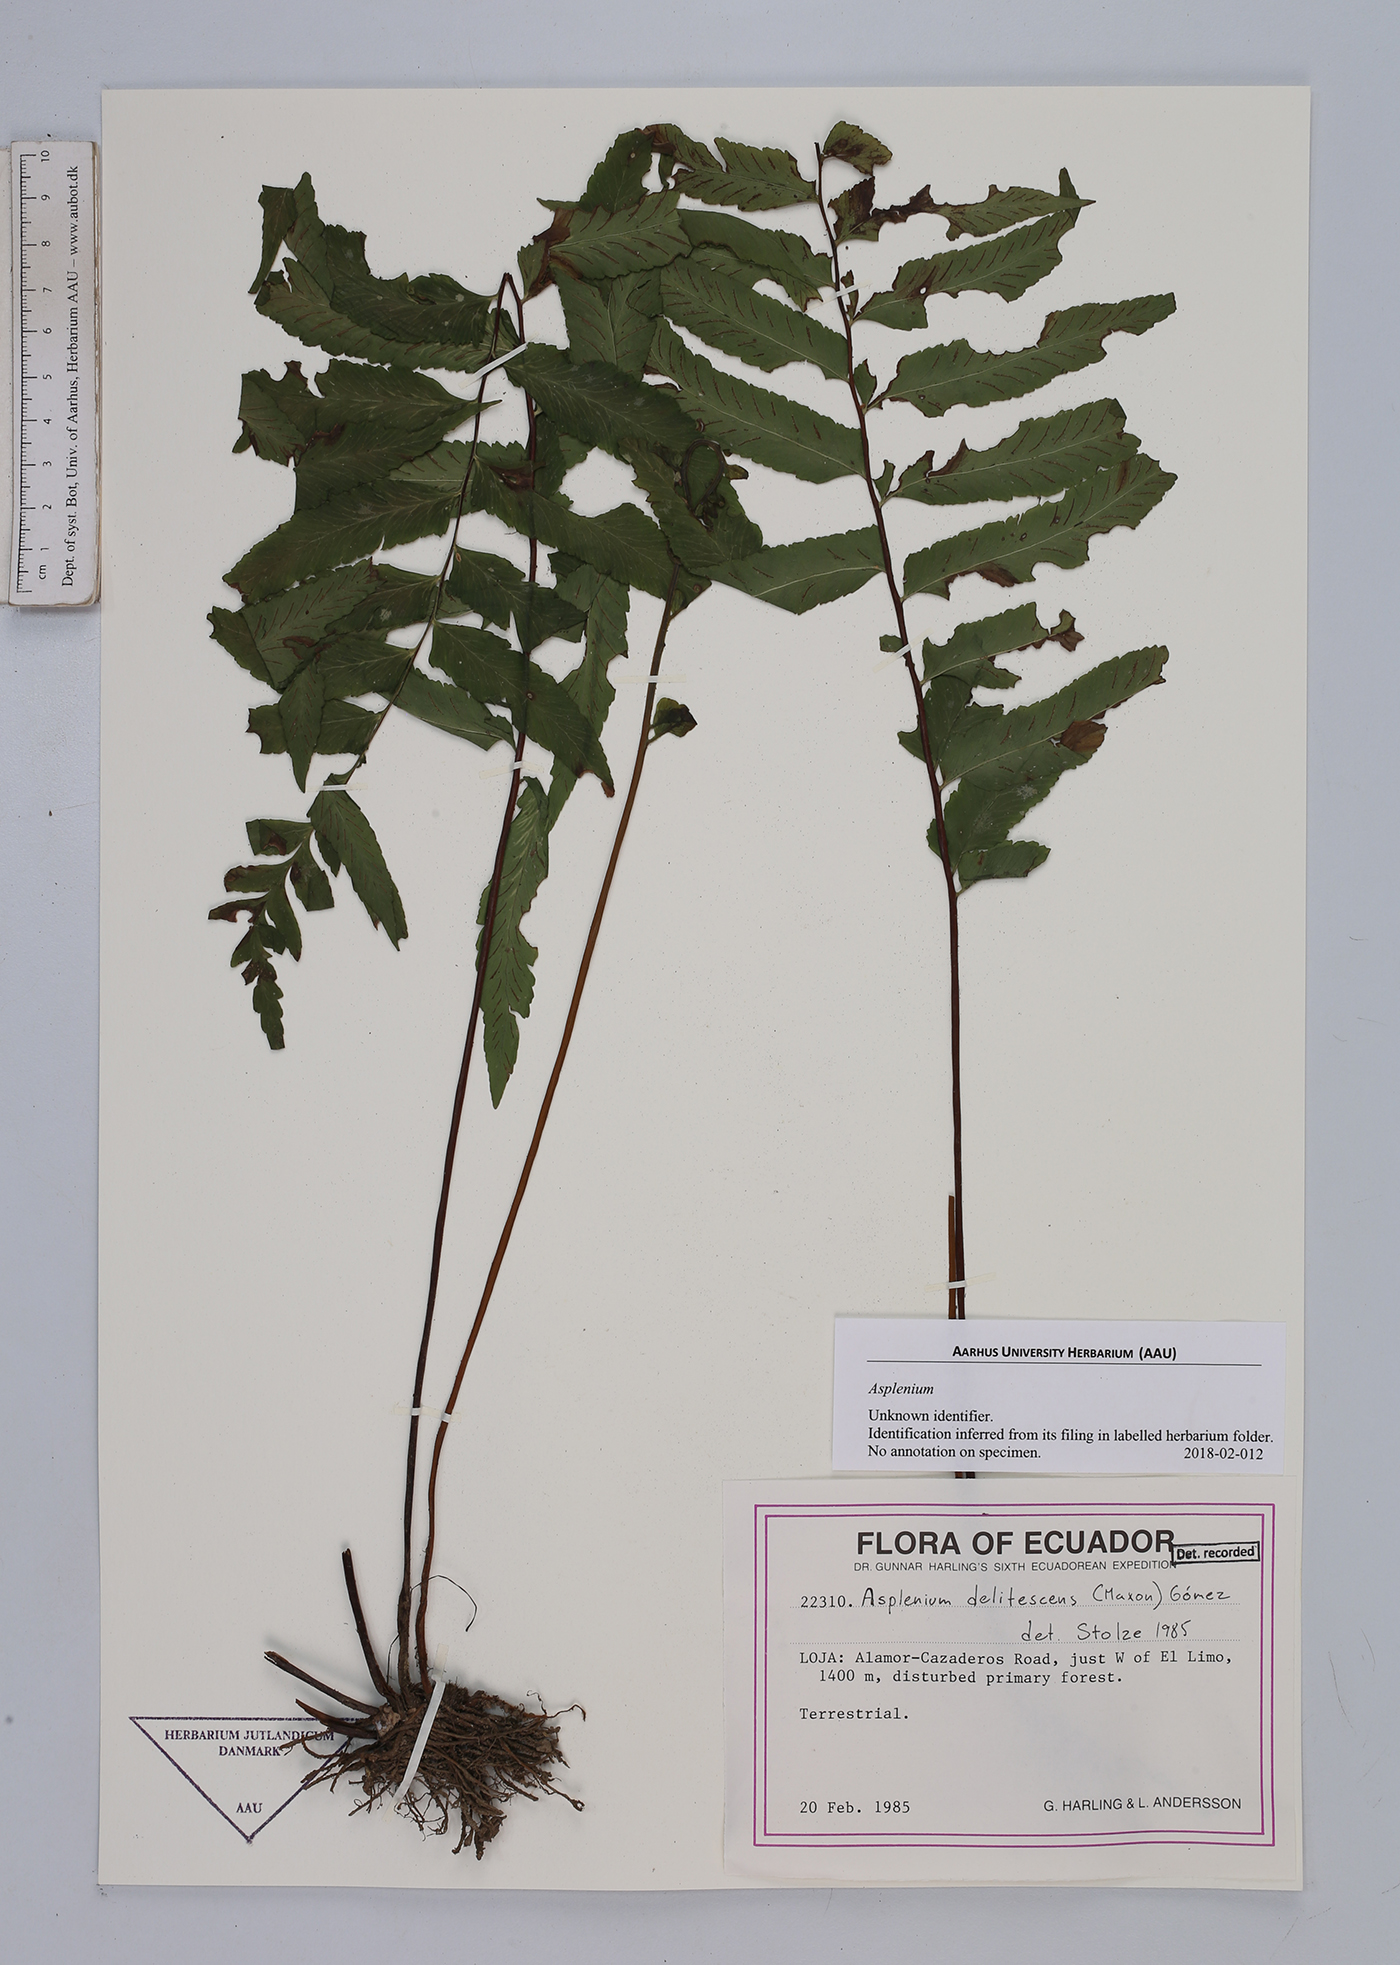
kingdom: Plantae
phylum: Tracheophyta
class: Polypodiopsida
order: Polypodiales
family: Aspleniaceae
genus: Asplenium
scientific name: Asplenium
